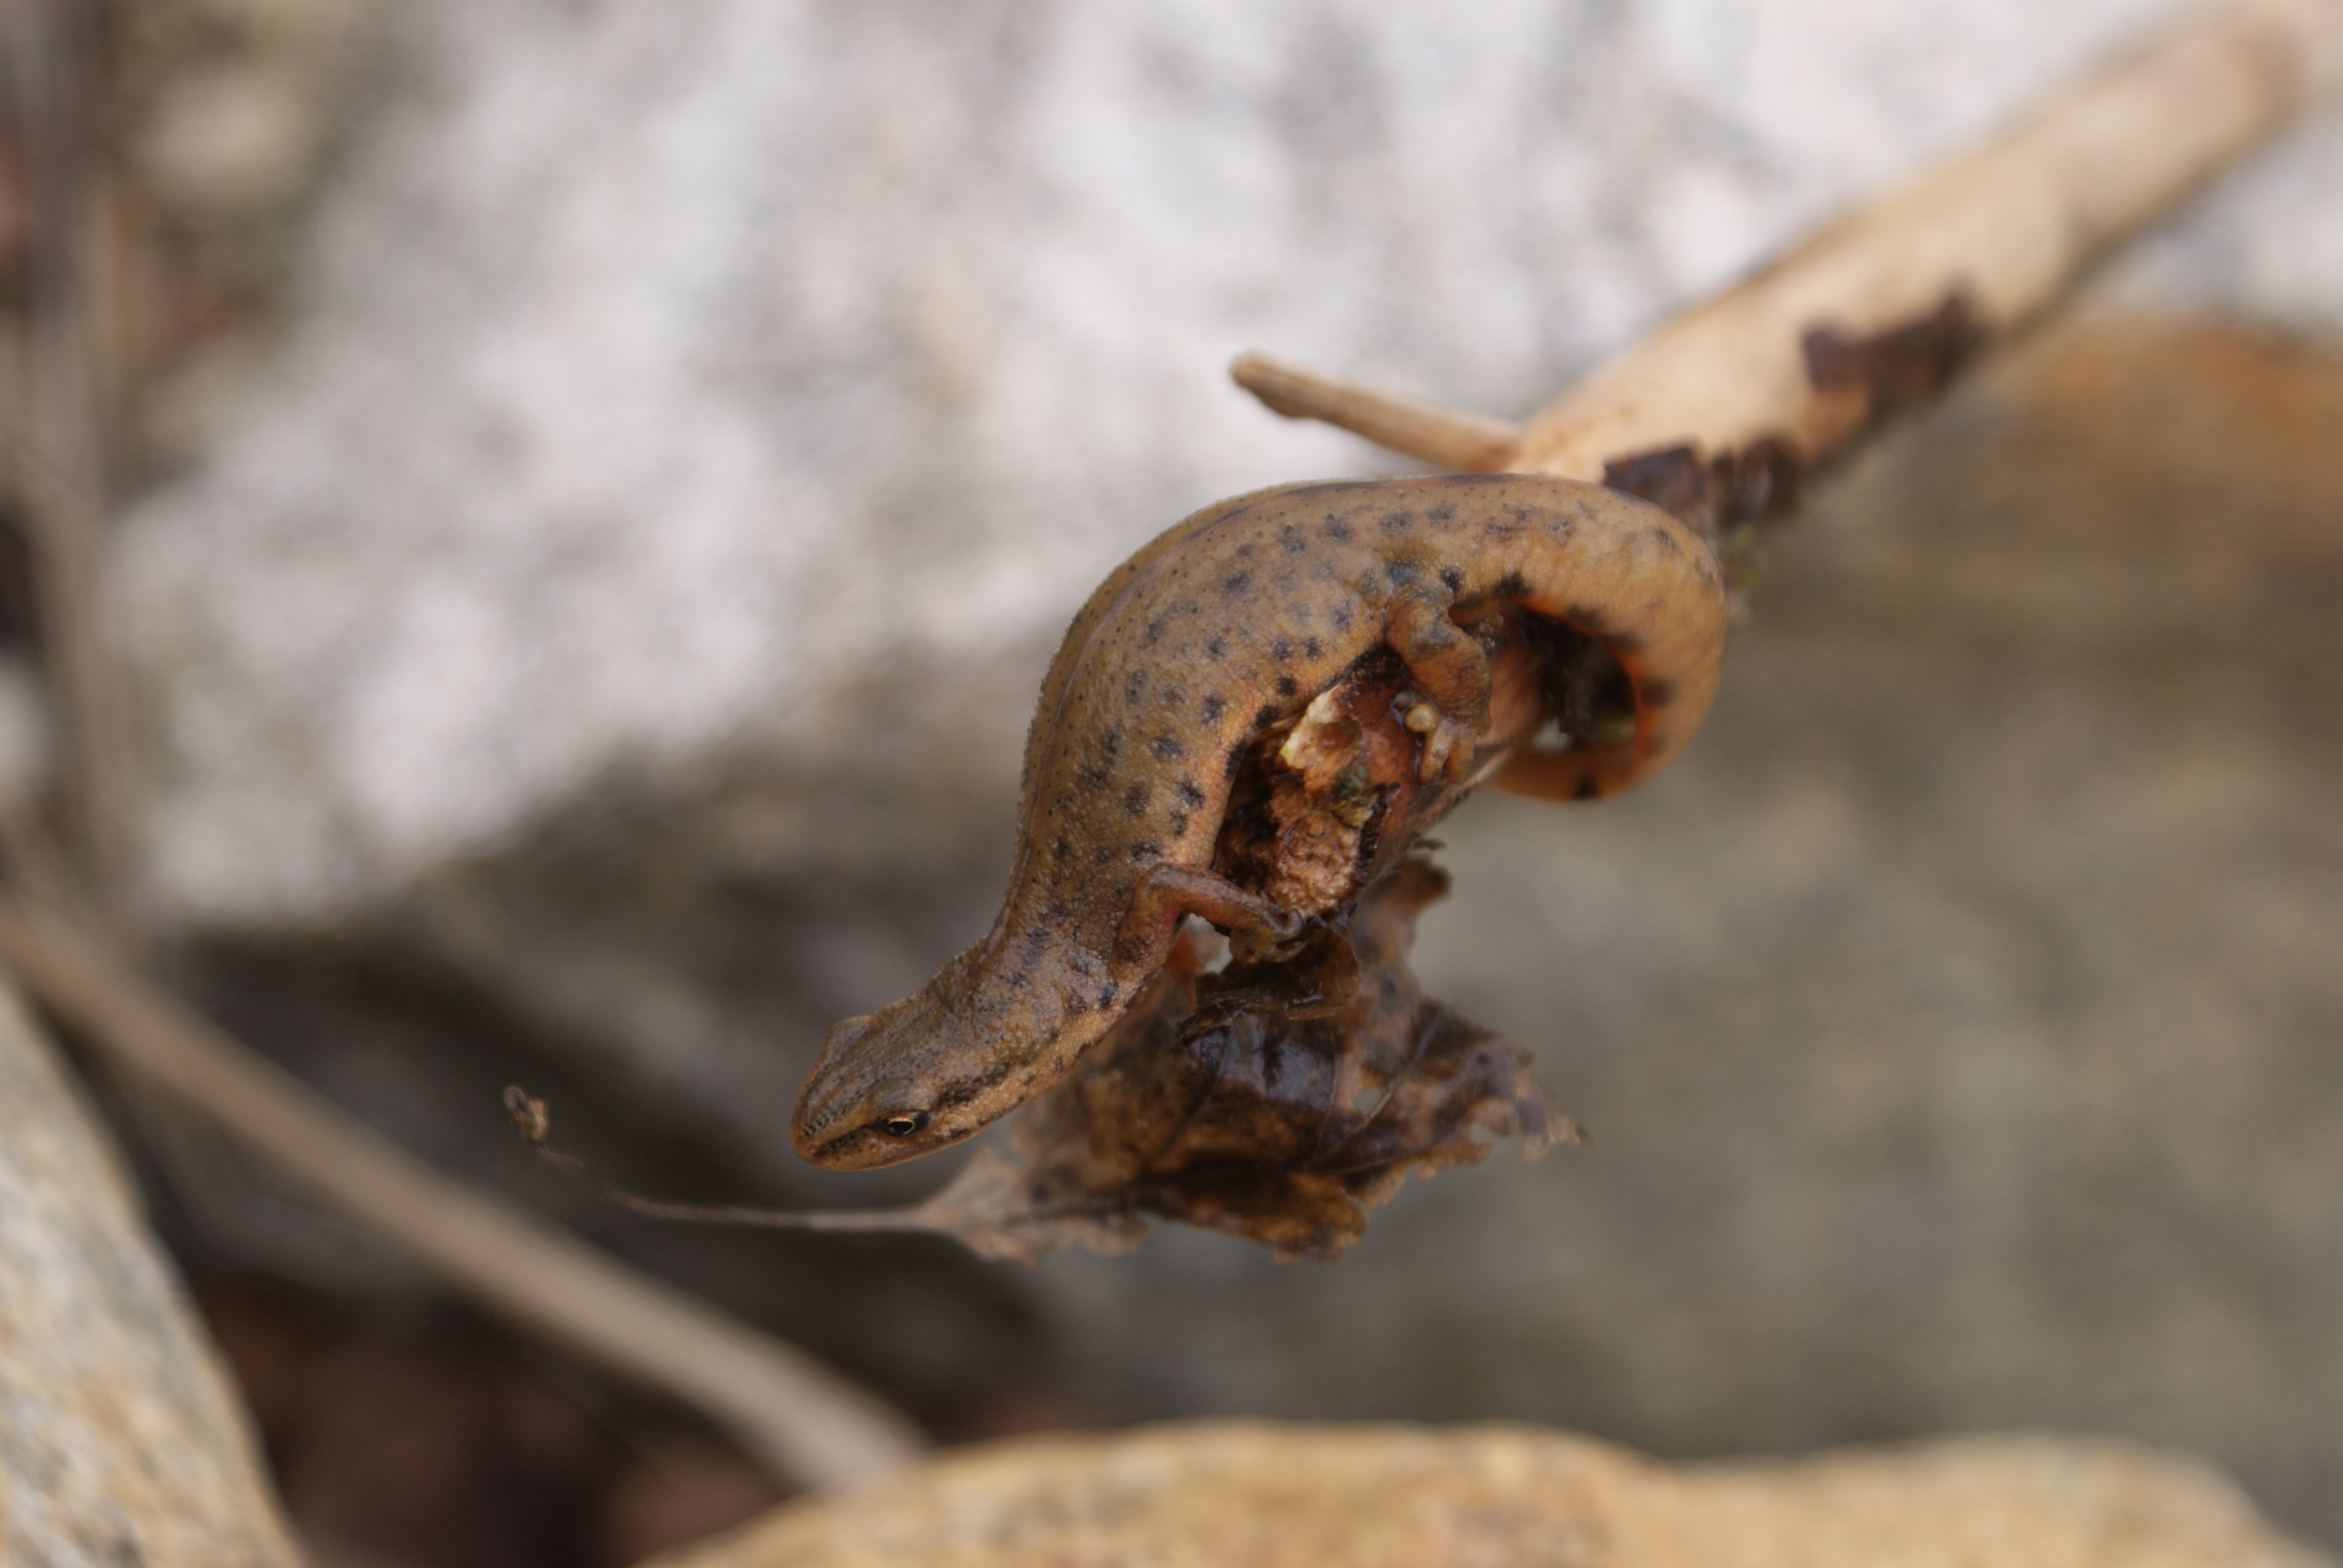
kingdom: Animalia
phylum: Chordata
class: Amphibia
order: Caudata
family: Salamandridae
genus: Lissotriton
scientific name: Lissotriton vulgaris
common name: Smooth newt
